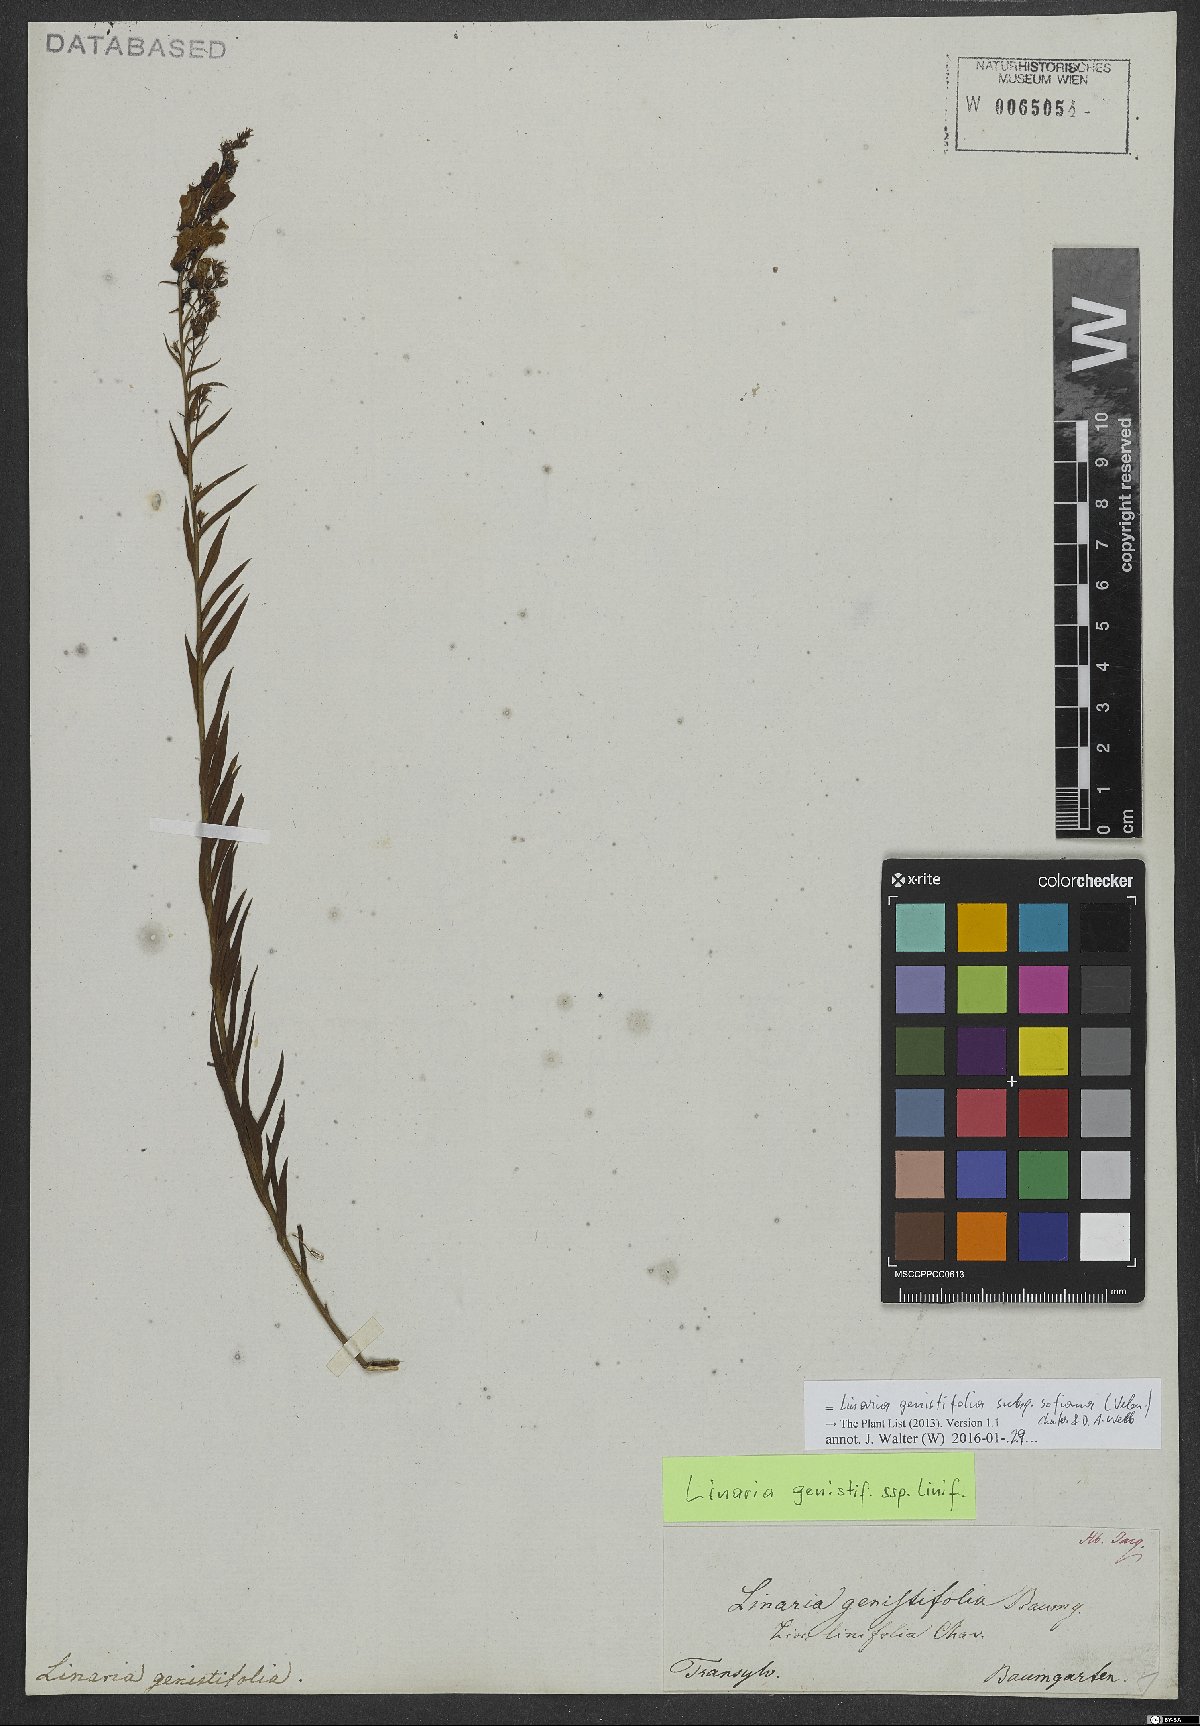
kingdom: Plantae
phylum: Tracheophyta
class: Magnoliopsida
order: Lamiales
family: Plantaginaceae
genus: Linaria
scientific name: Linaria genistifolia
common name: Broomleaf toadflax
